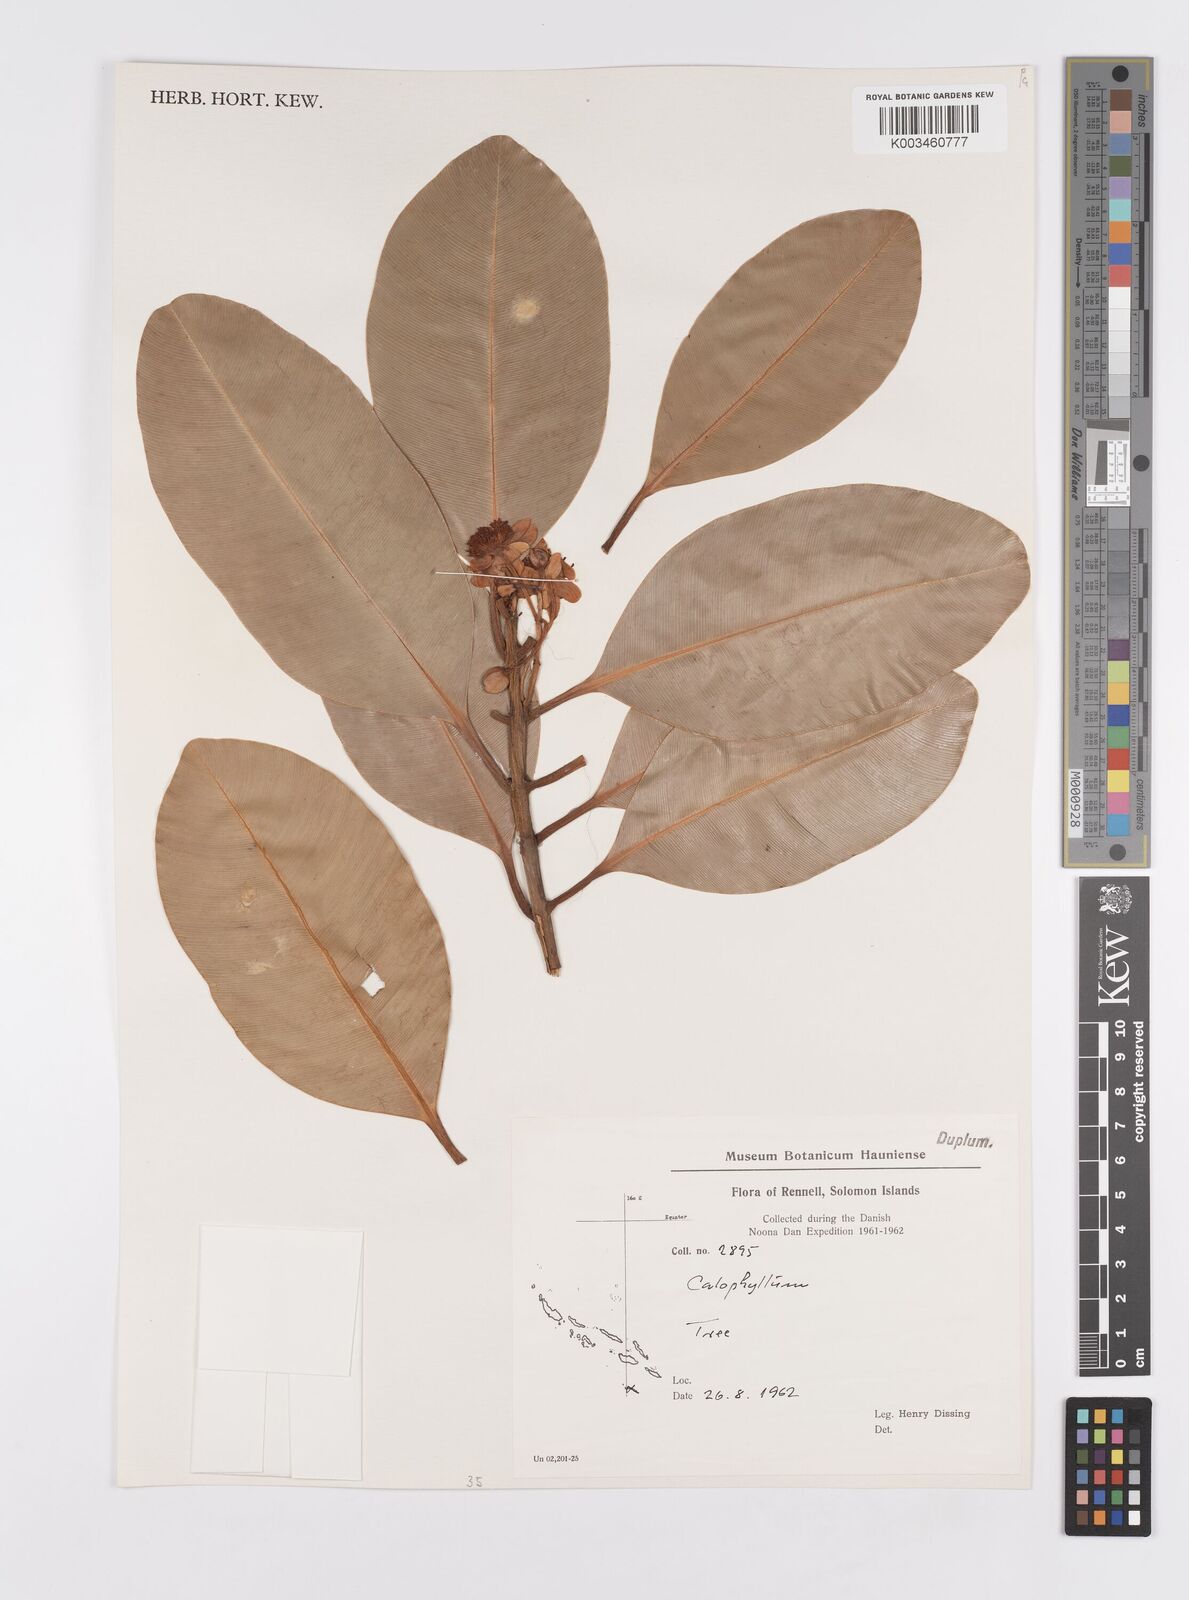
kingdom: Plantae
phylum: Tracheophyta
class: Magnoliopsida
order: Malpighiales
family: Calophyllaceae
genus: Calophyllum
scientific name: Calophyllum
